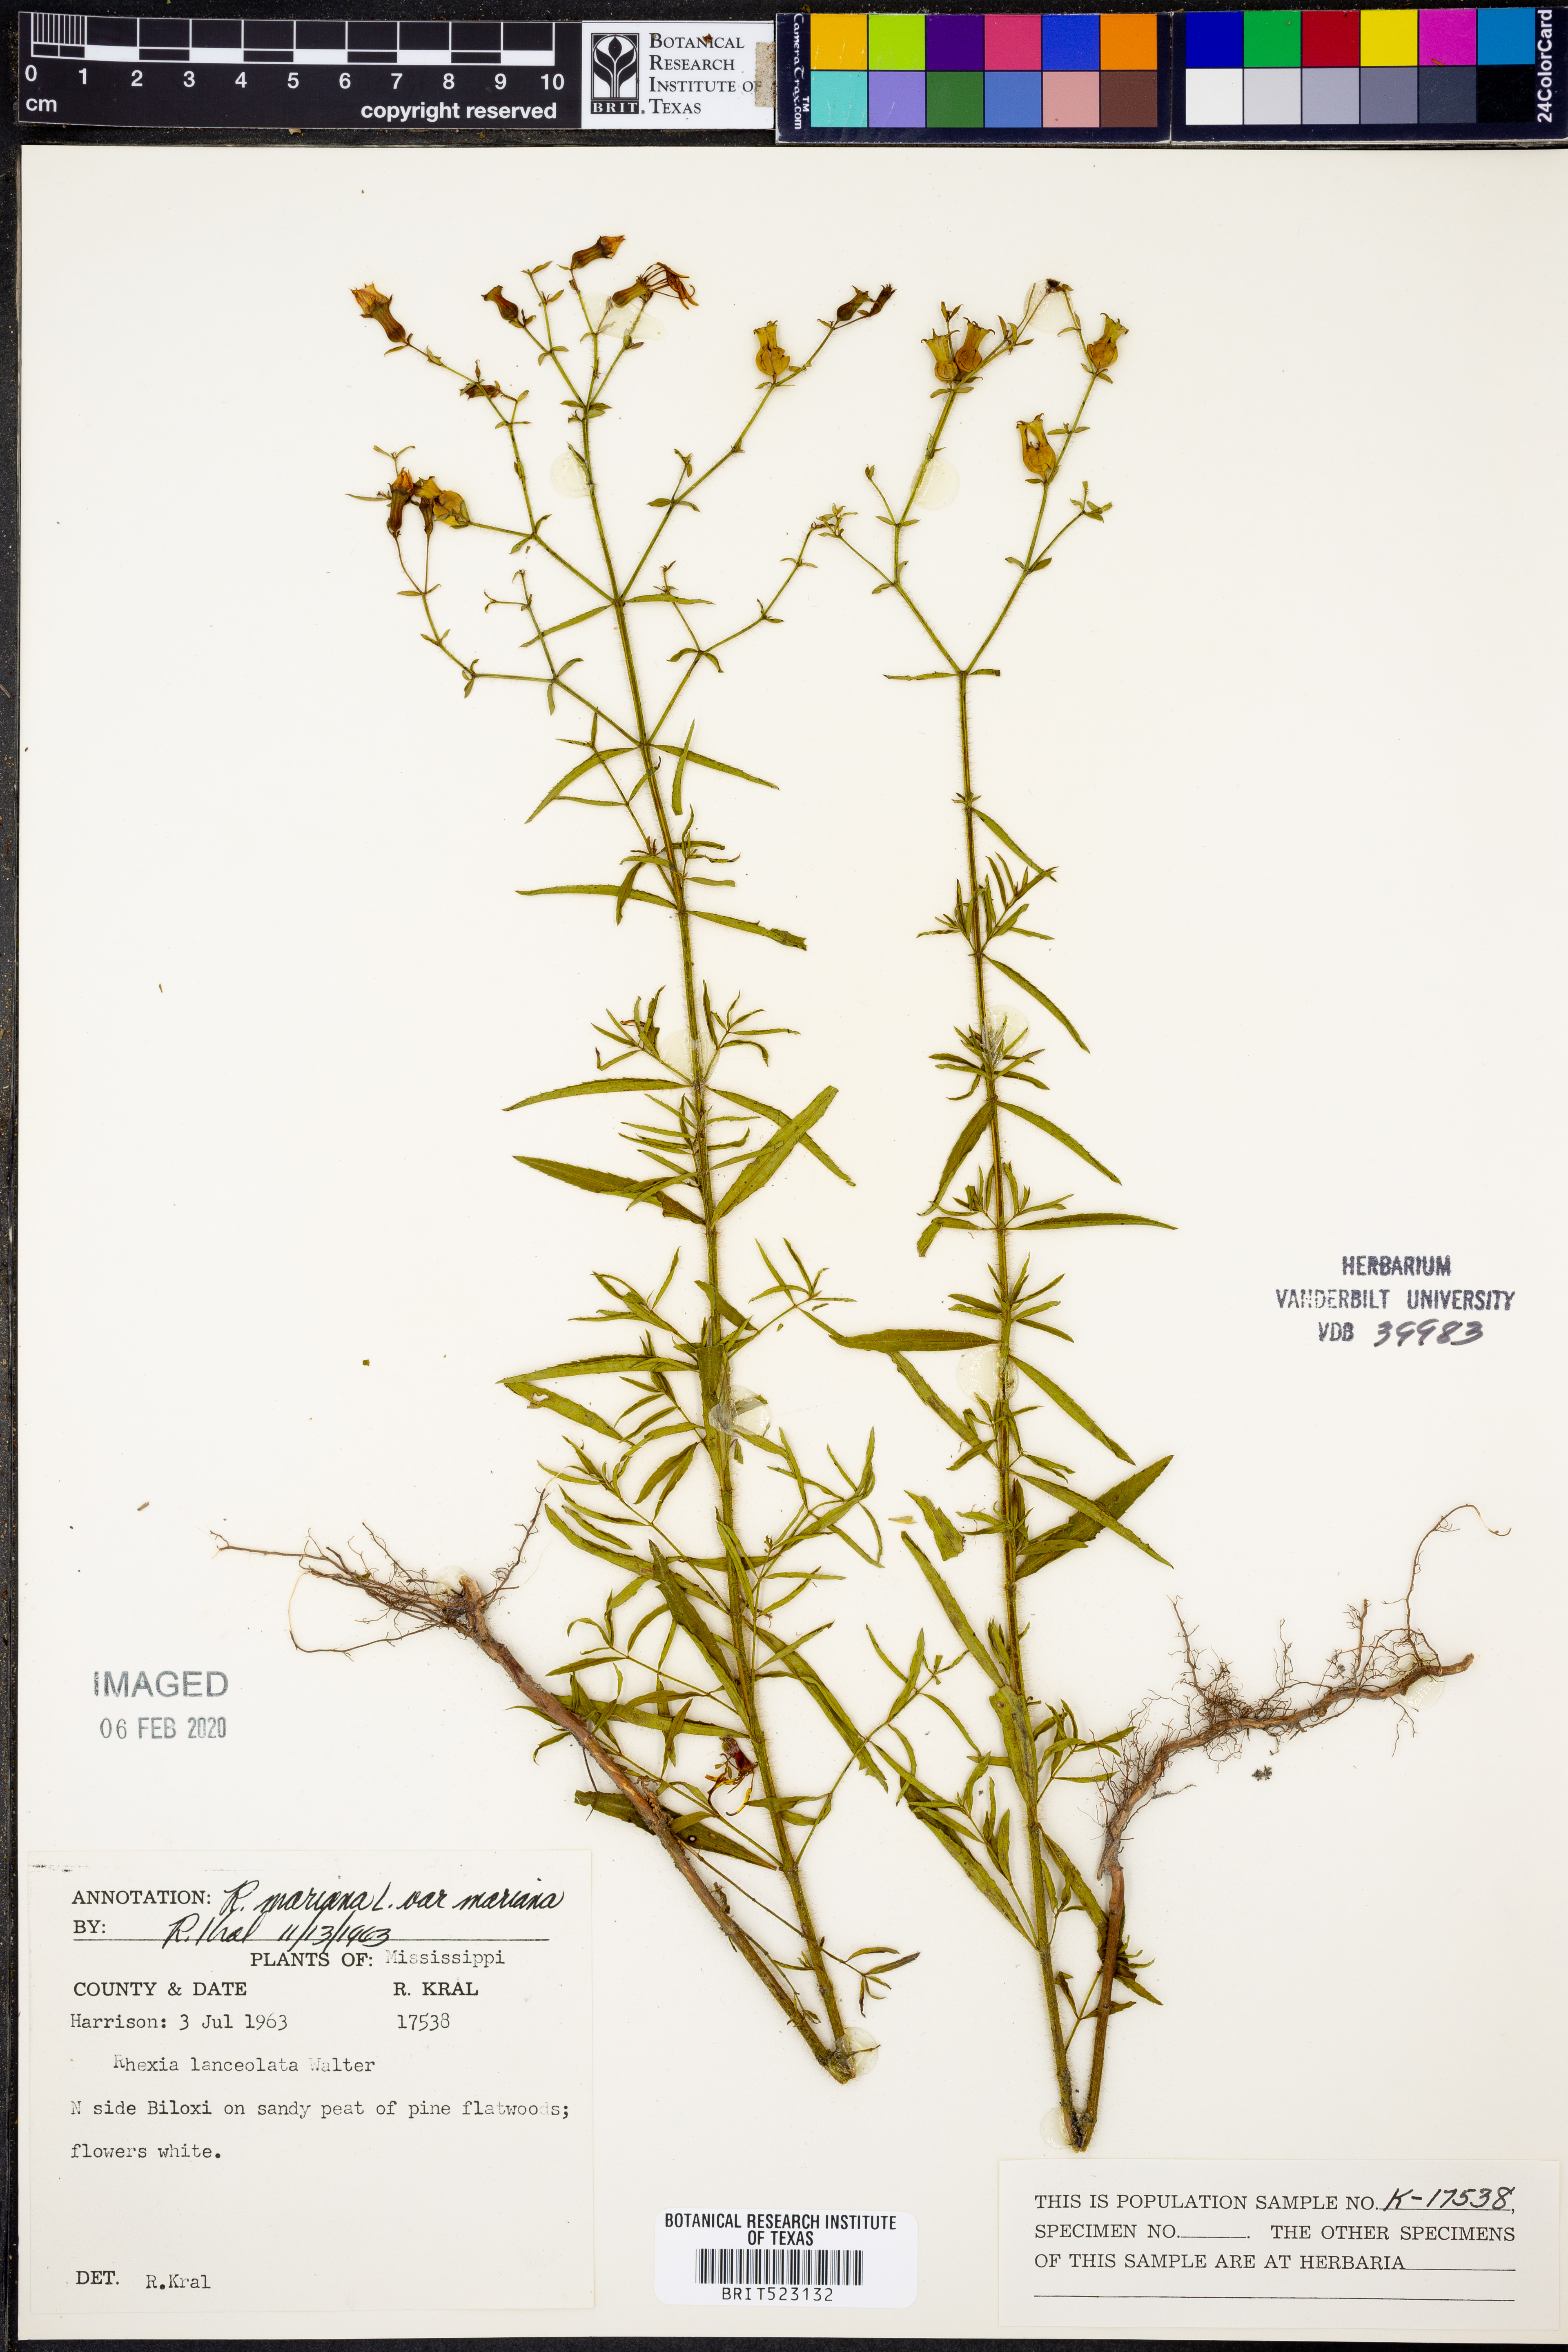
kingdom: Plantae
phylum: Tracheophyta
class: Magnoliopsida
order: Myrtales
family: Melastomataceae
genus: Rhexia
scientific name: Rhexia mariana
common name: Dull meadow-pitcher
